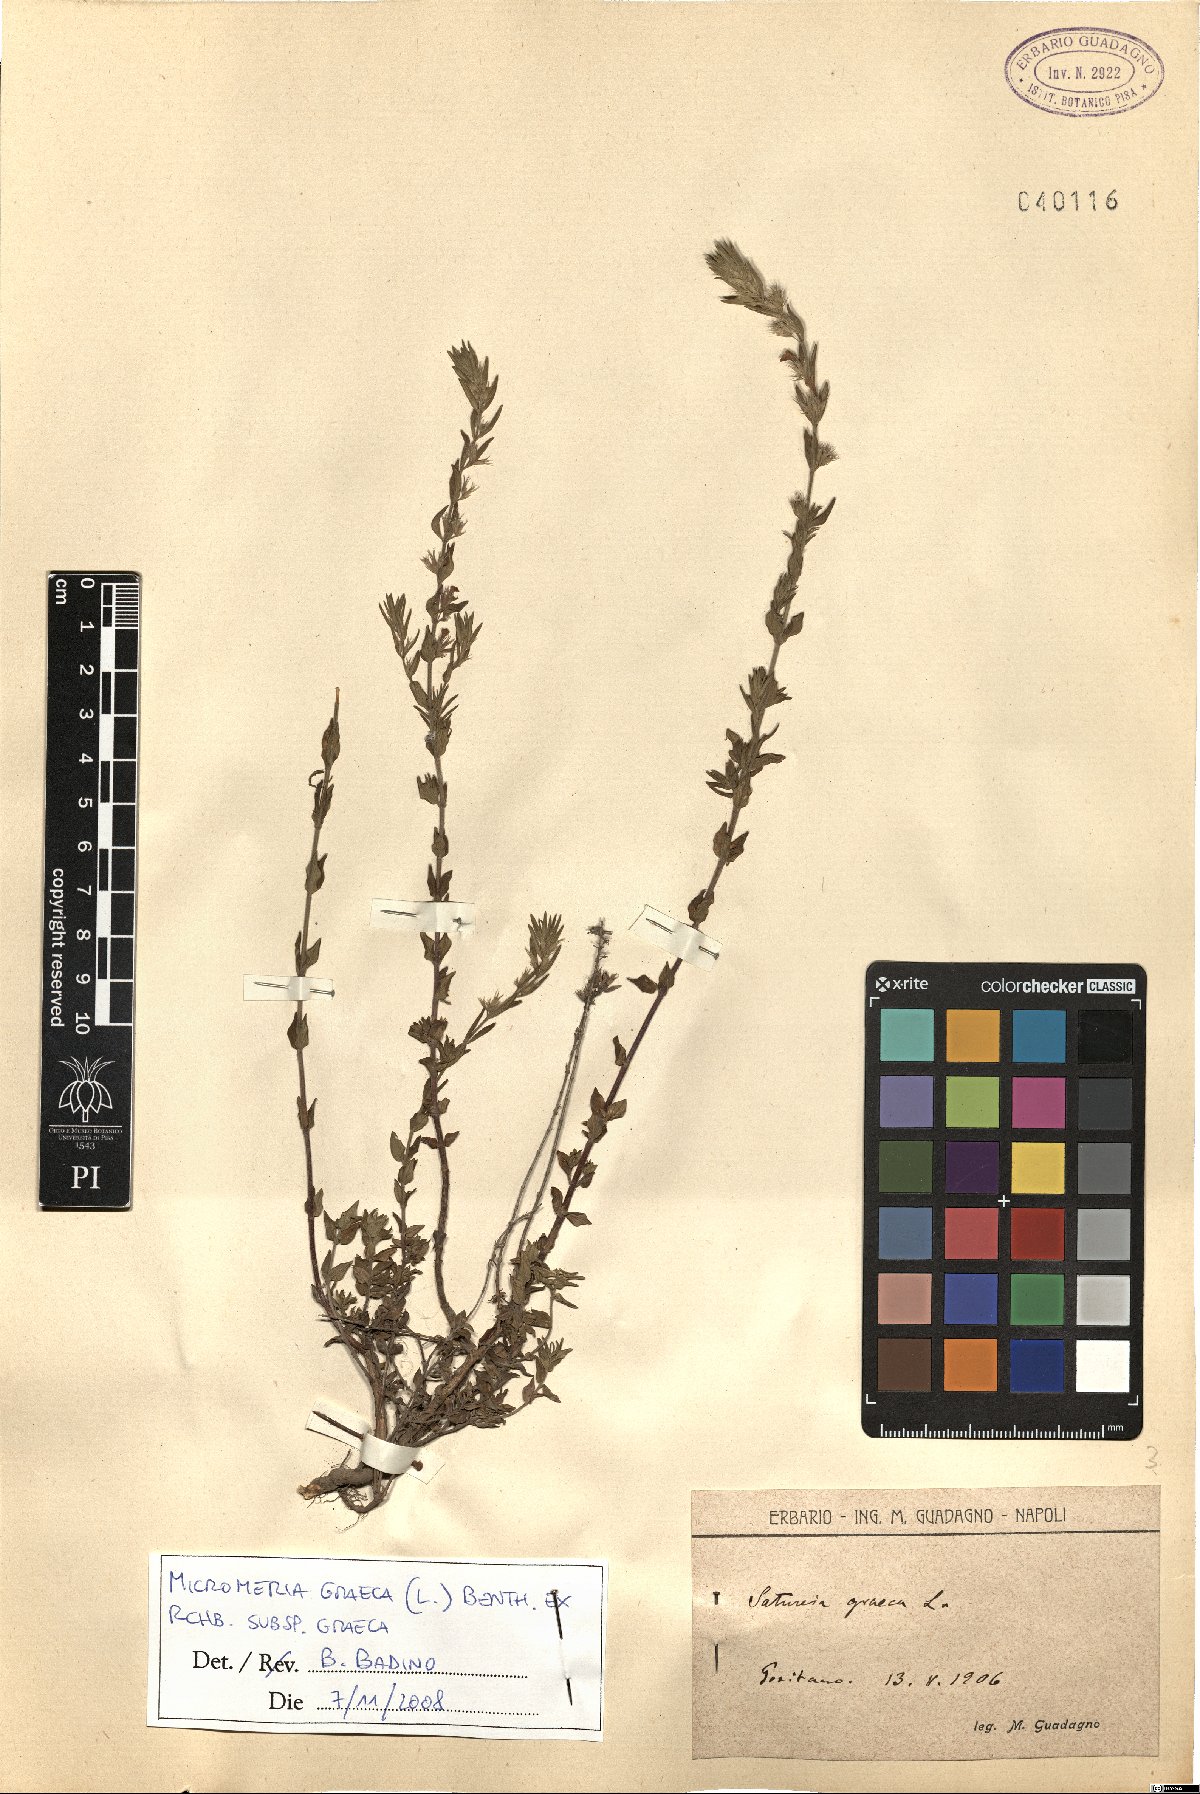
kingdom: Plantae
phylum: Tracheophyta
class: Magnoliopsida
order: Lamiales
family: Lamiaceae
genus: Micromeria
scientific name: Micromeria graeca
